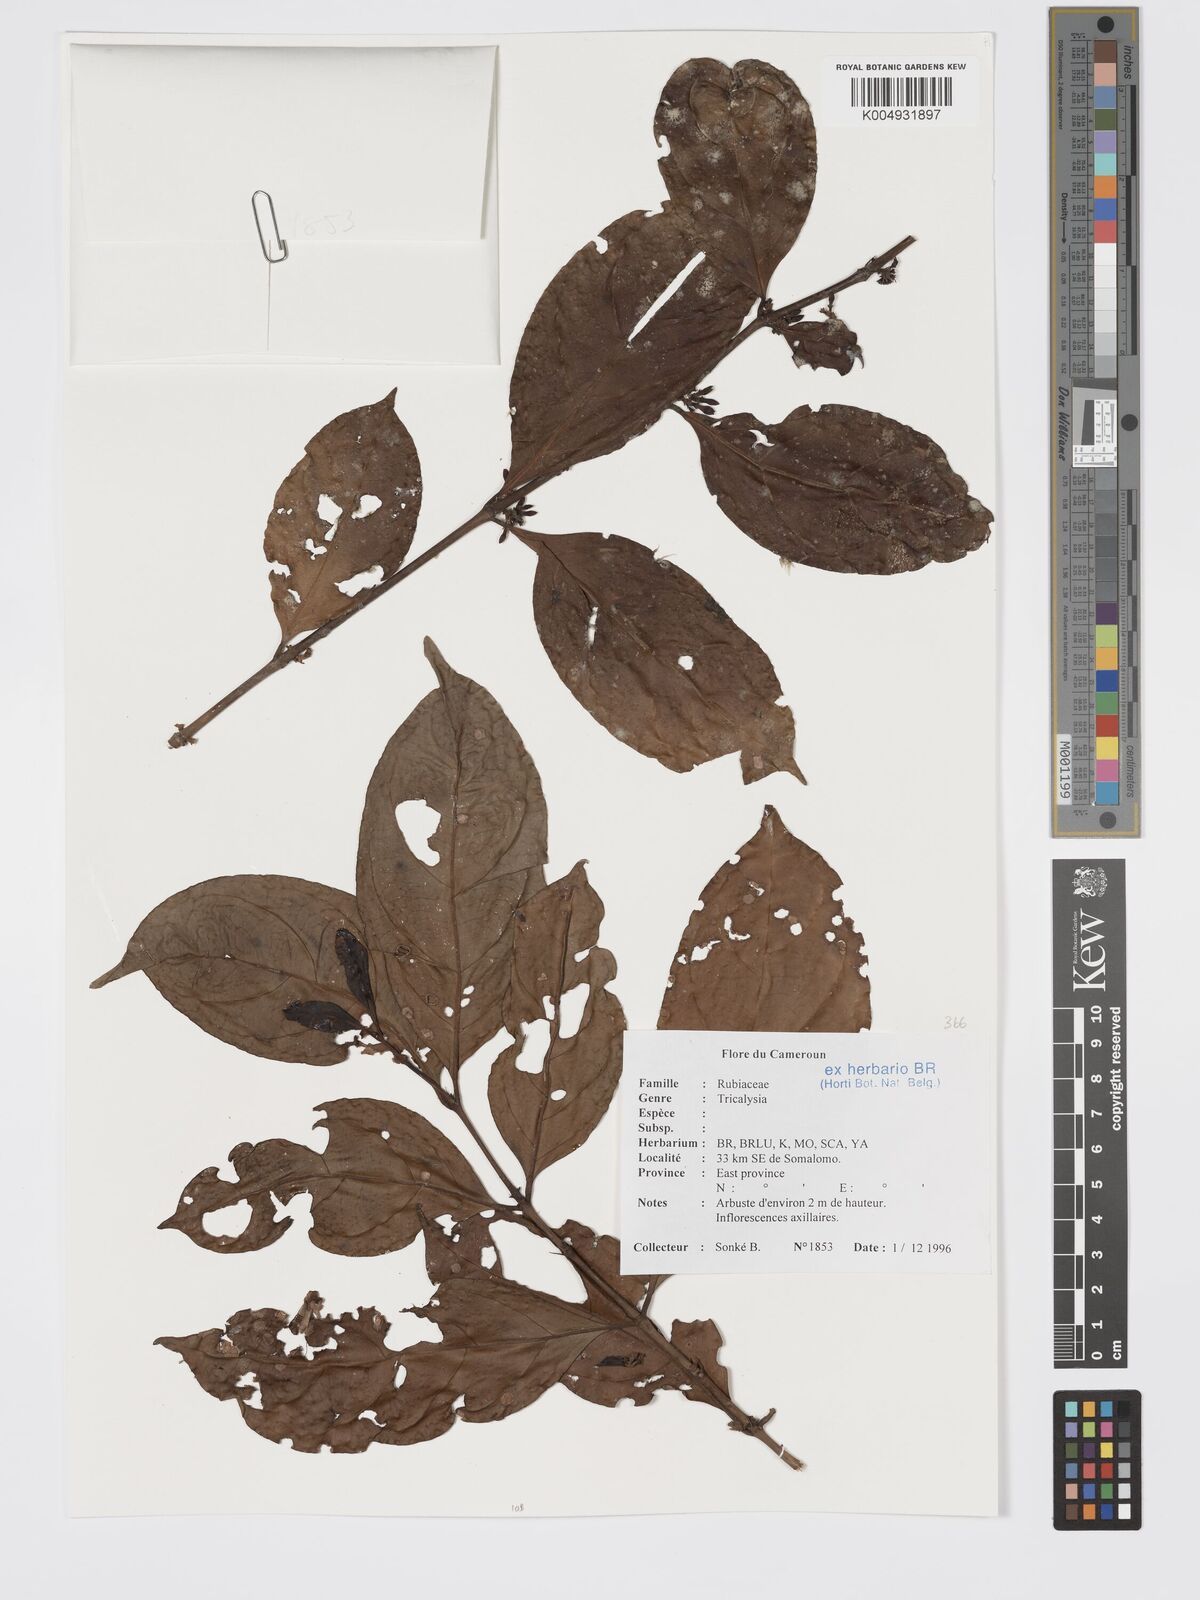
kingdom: Plantae
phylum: Tracheophyta
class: Magnoliopsida
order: Gentianales
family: Rubiaceae
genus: Tricalysia
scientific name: Tricalysia
